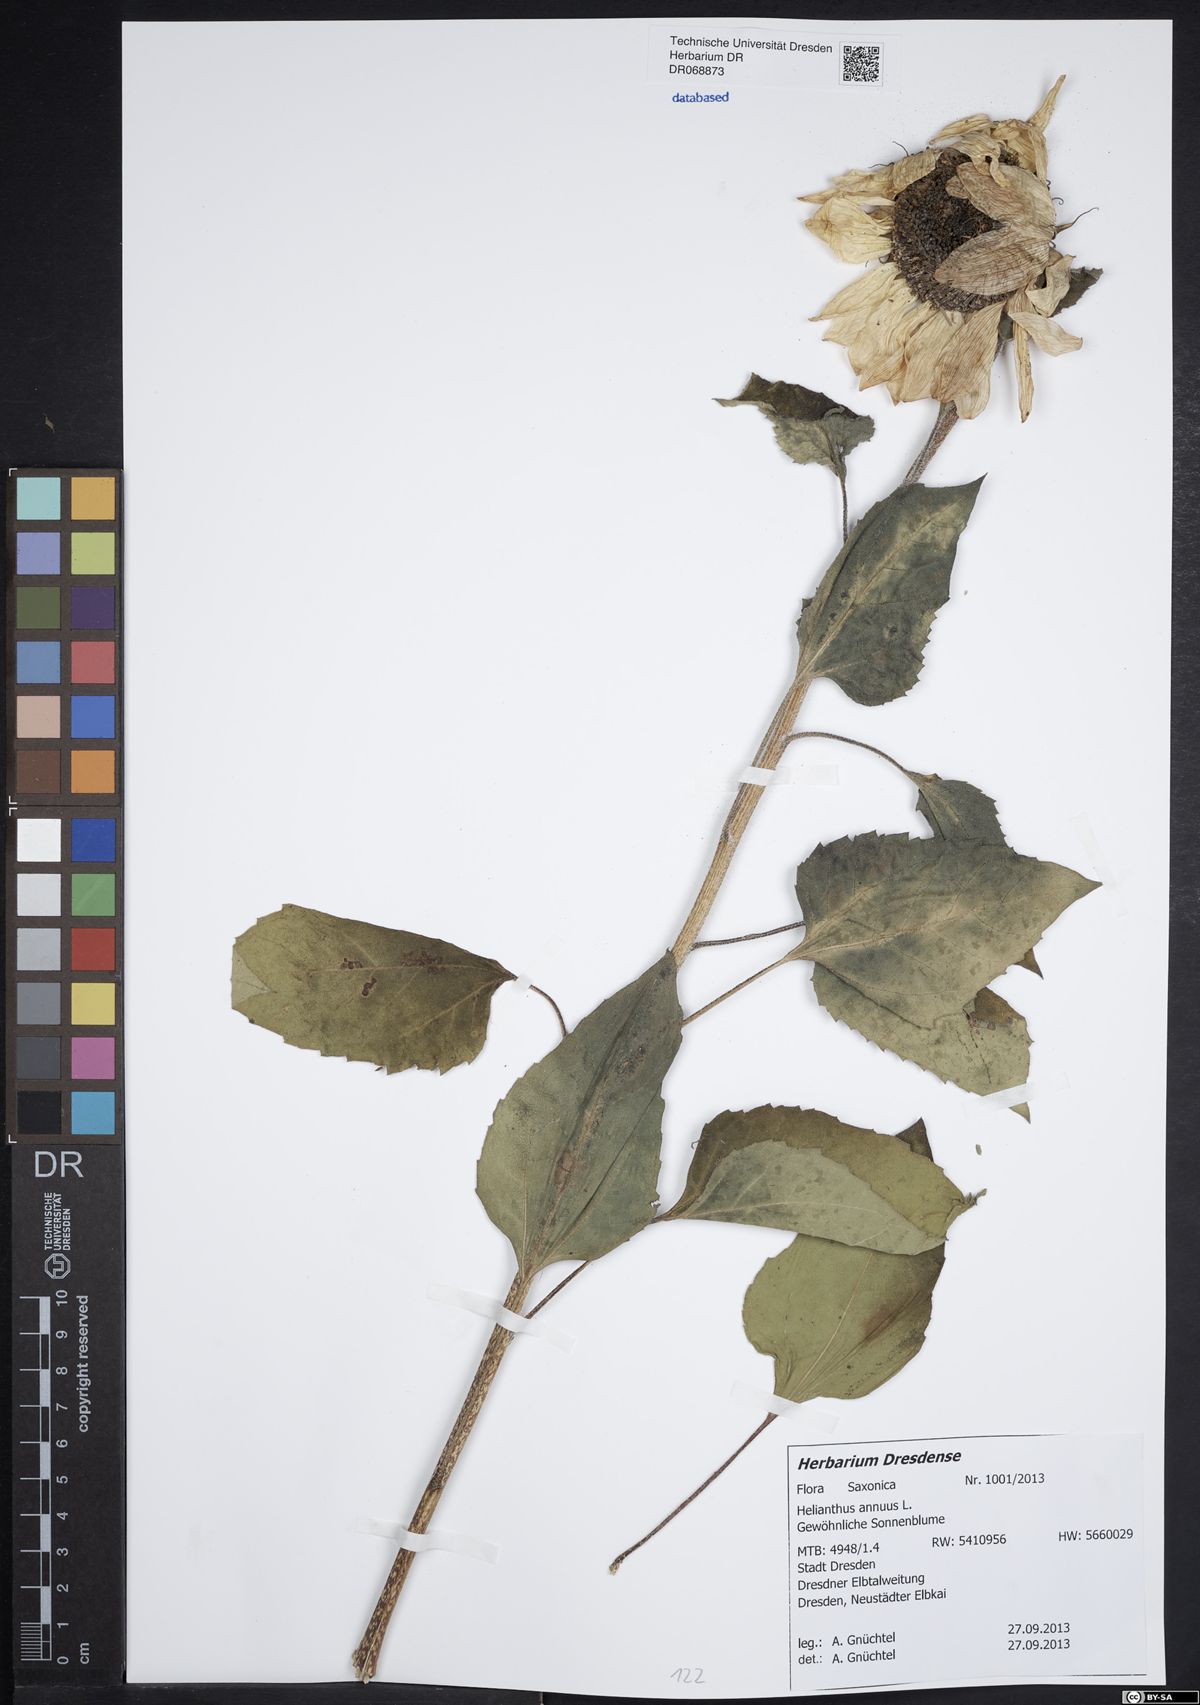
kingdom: Plantae
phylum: Tracheophyta
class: Magnoliopsida
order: Asterales
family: Asteraceae
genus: Helianthus
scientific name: Helianthus annuus
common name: Sunflower
